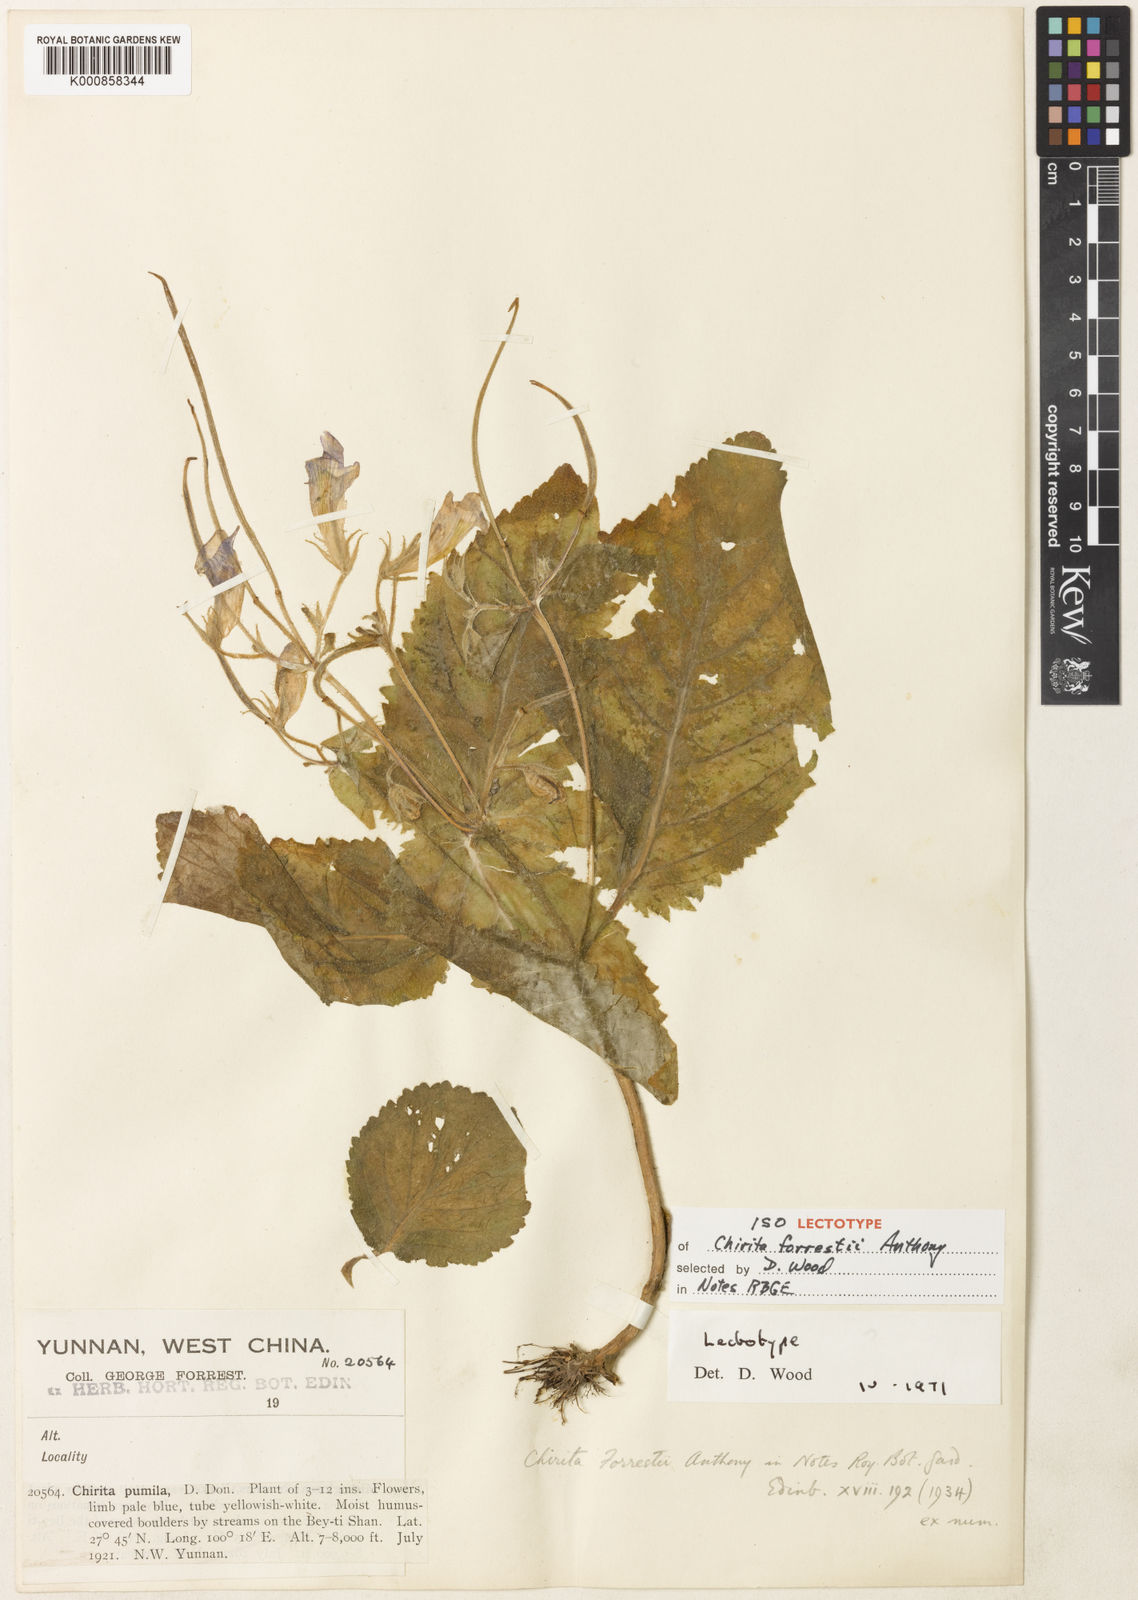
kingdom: Plantae
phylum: Tracheophyta
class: Magnoliopsida
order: Lamiales
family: Gesneriaceae
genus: Henckelia
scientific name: Henckelia forrestii
